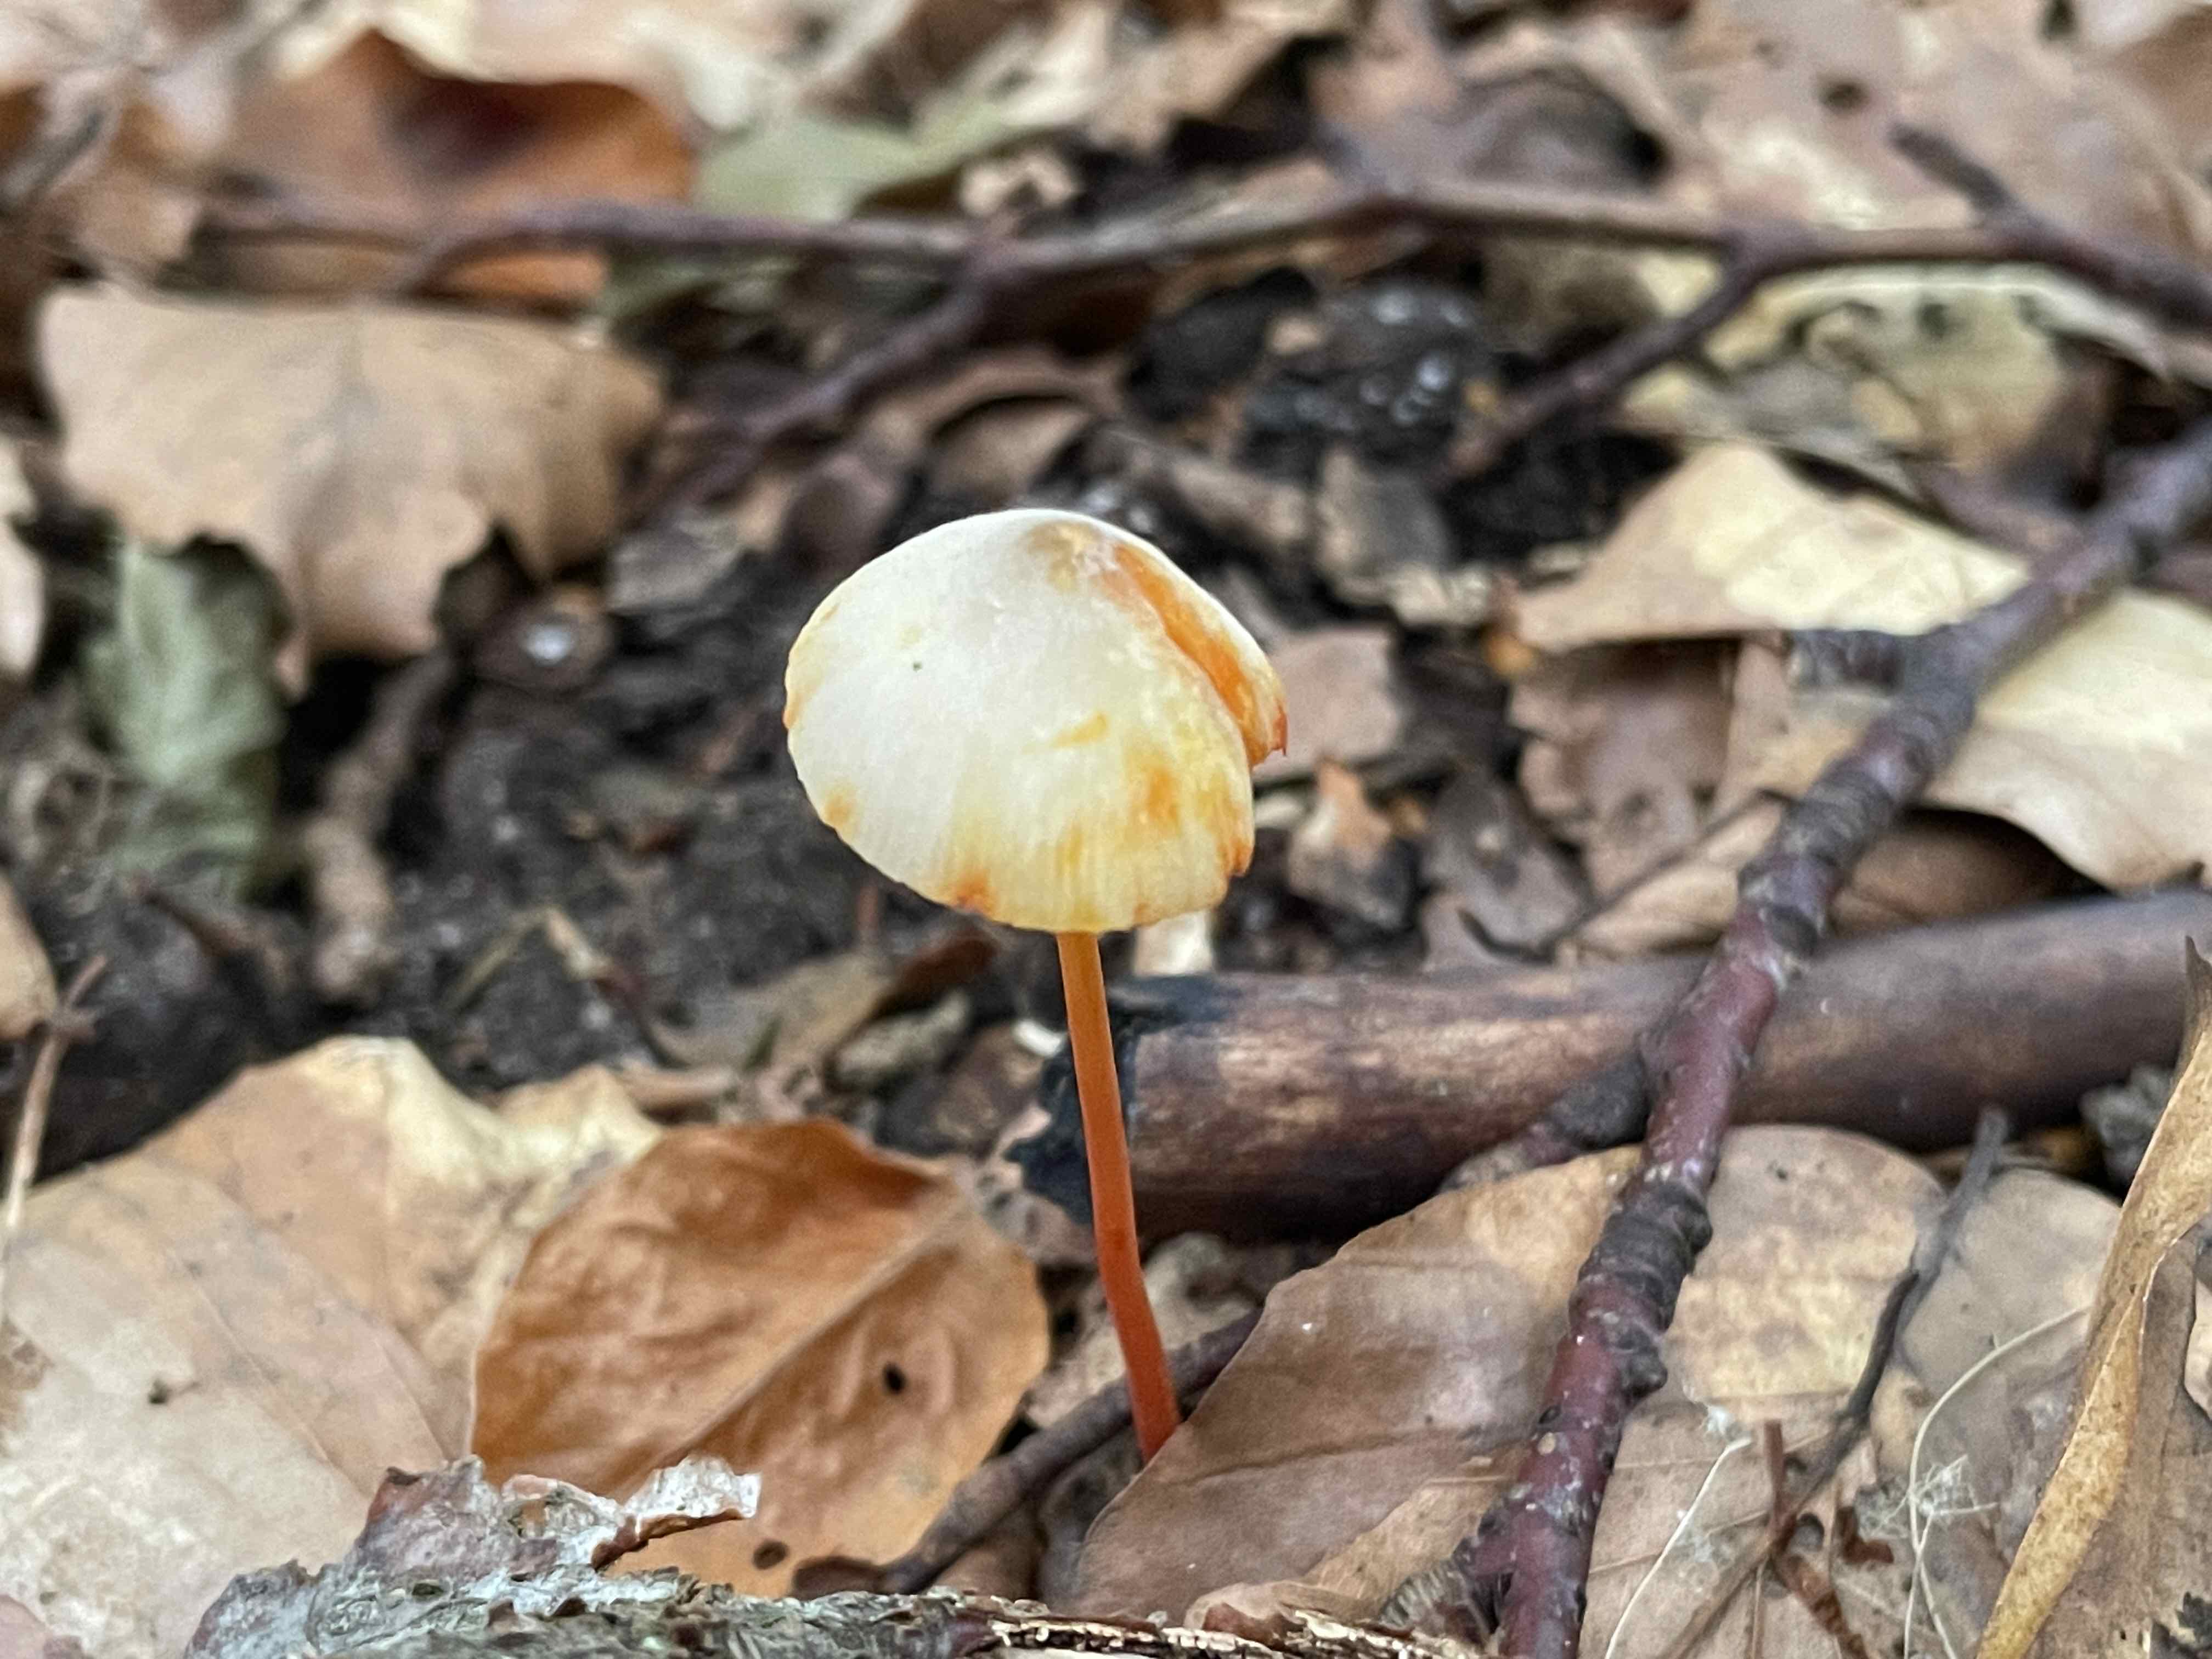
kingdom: Fungi
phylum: Basidiomycota
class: Agaricomycetes
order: Agaricales
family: Mycenaceae
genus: Mycena
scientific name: Mycena crocata
